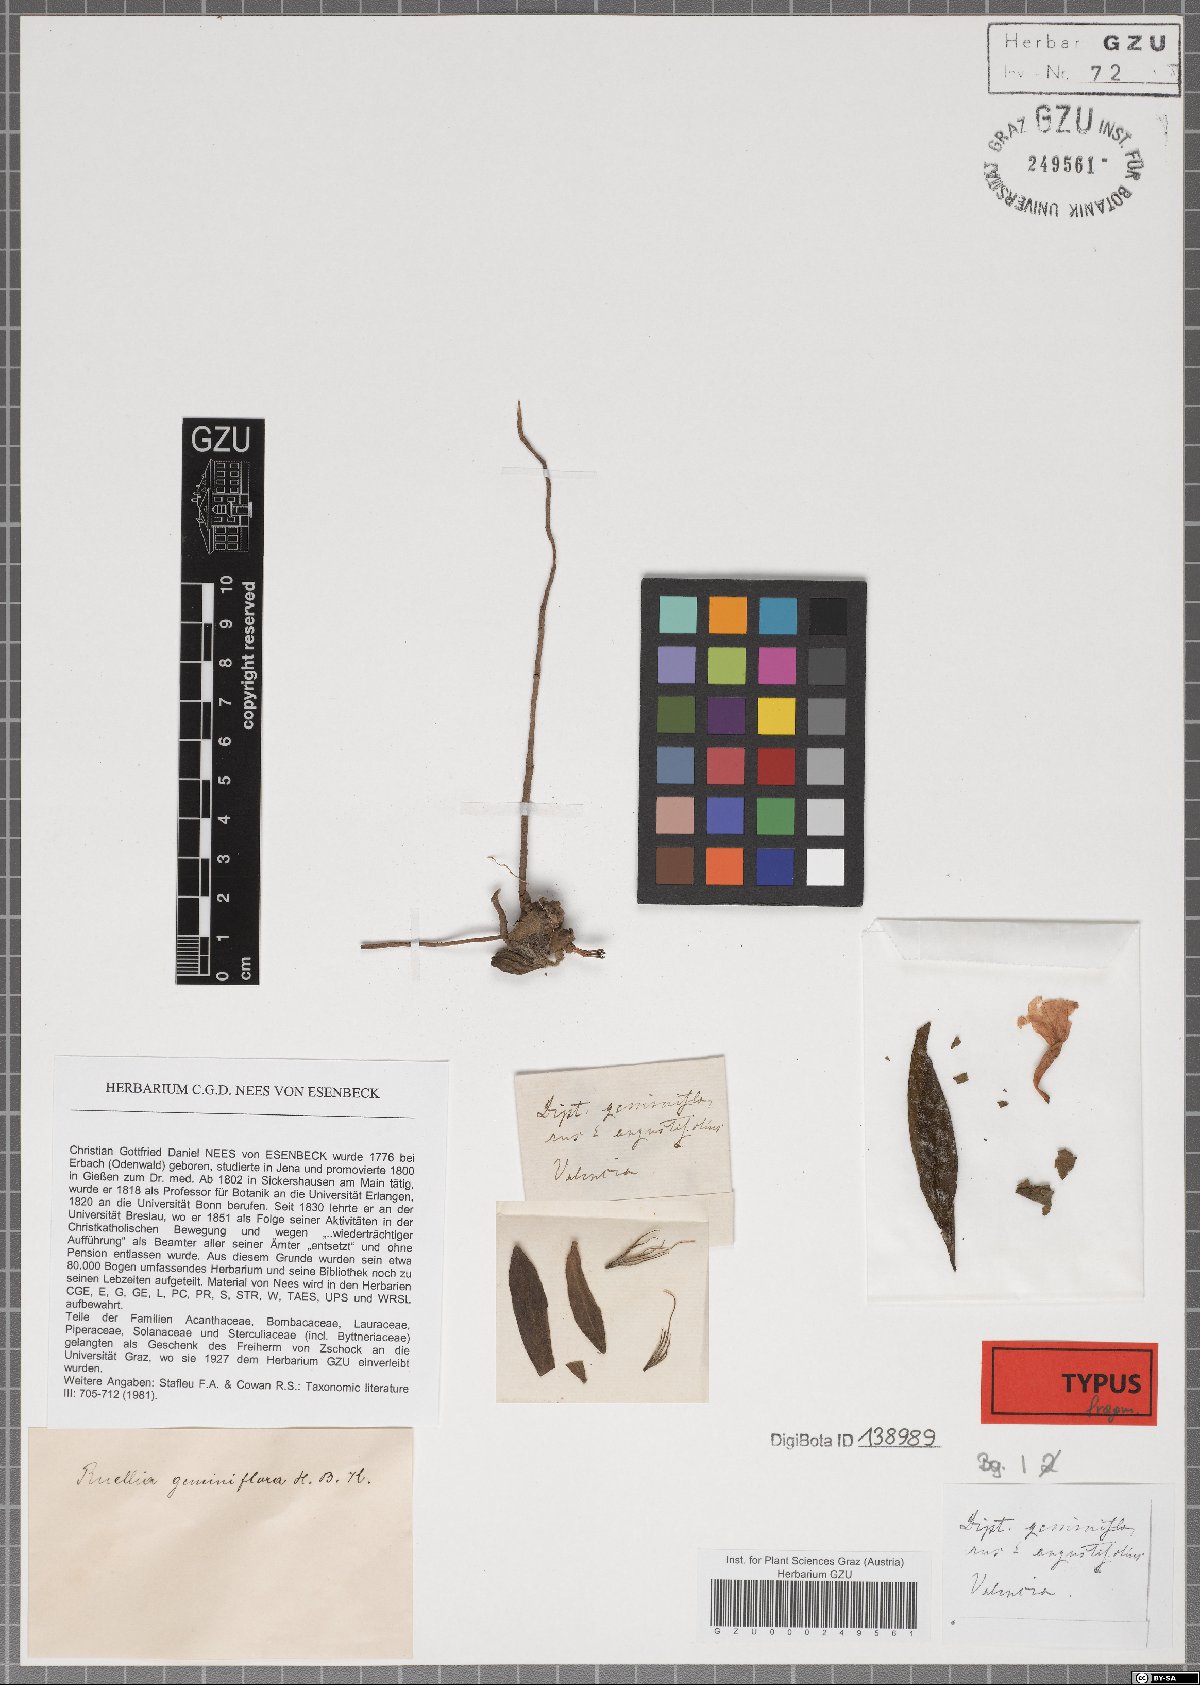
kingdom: Plantae
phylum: Tracheophyta
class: Magnoliopsida
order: Lamiales
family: Acanthaceae
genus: Ruellia
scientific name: Ruellia geminiflora
